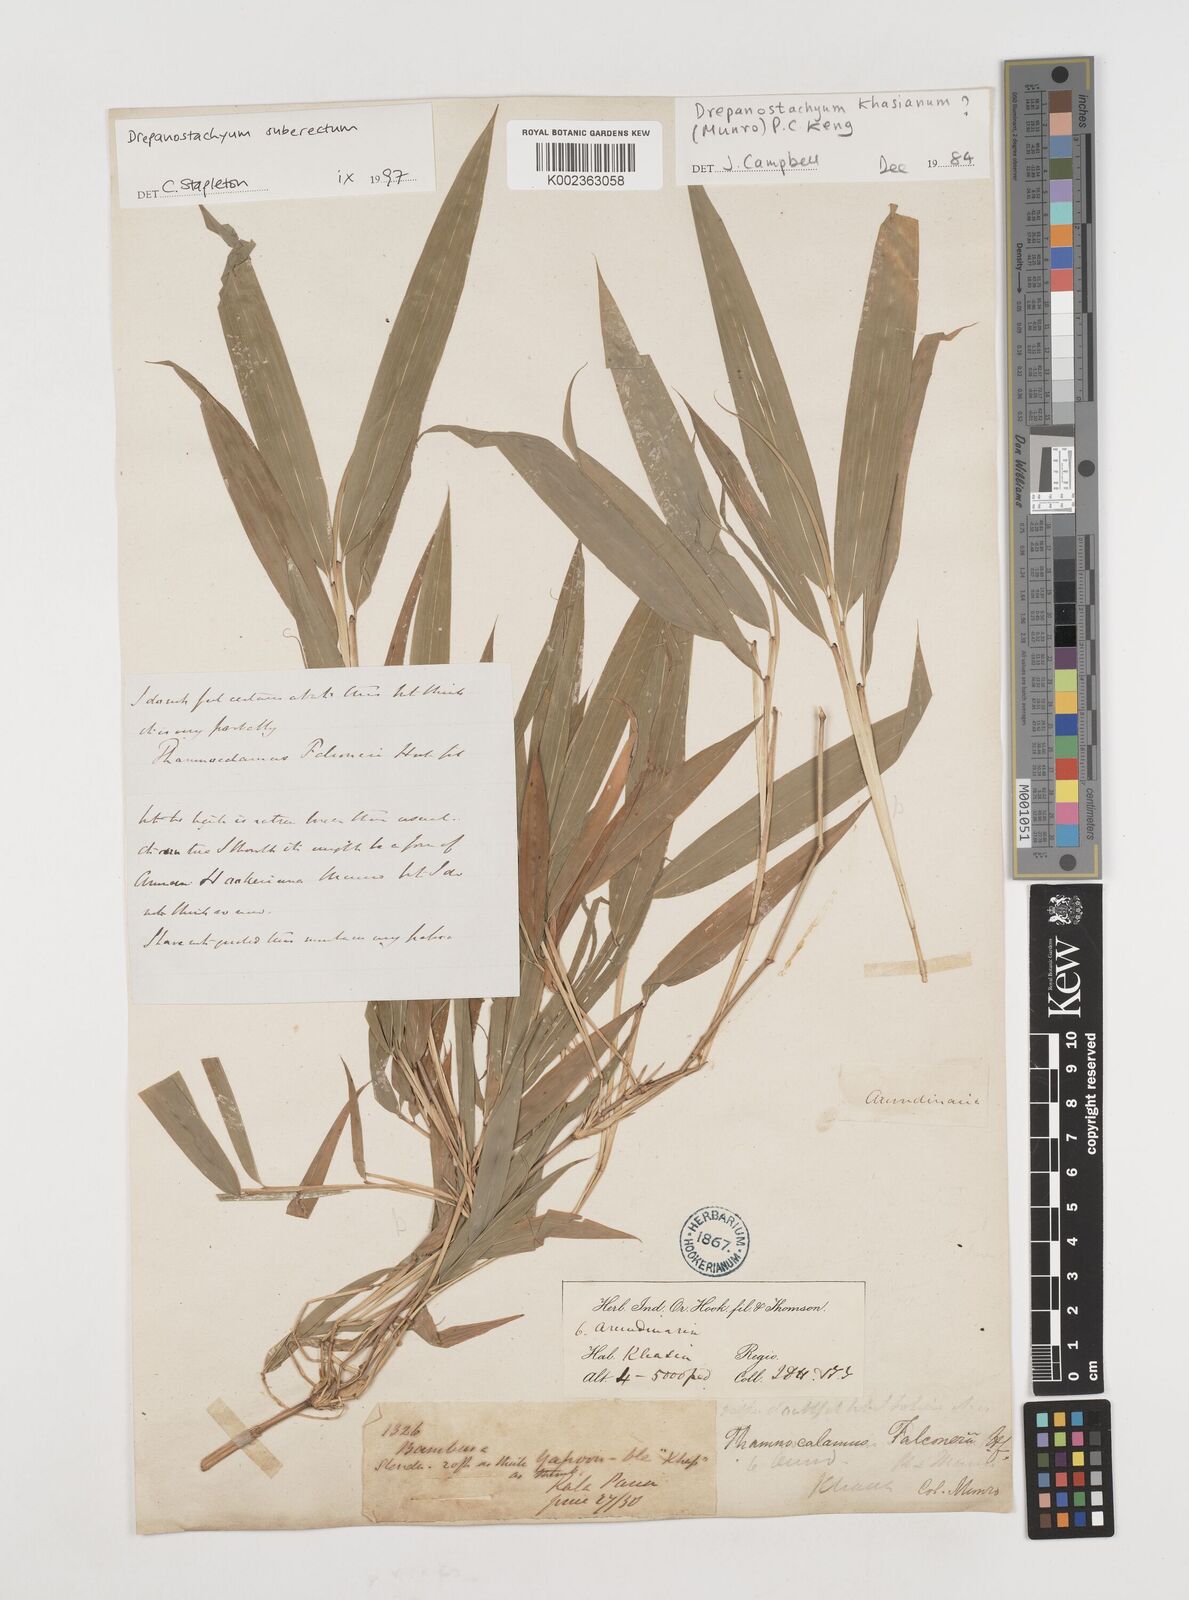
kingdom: Plantae
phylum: Tracheophyta
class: Liliopsida
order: Poales
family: Poaceae
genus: Drepanostachyum
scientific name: Drepanostachyum khasianum
